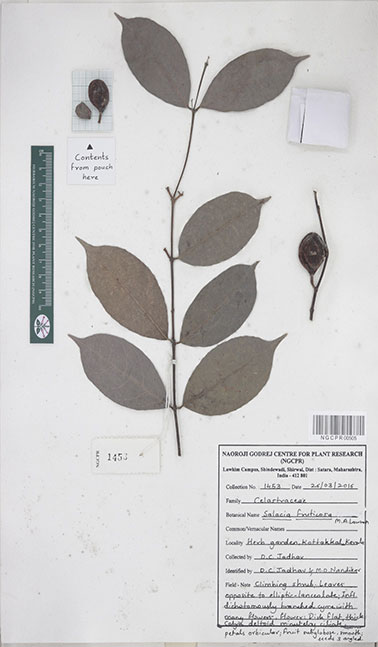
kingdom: Plantae
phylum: Tracheophyta
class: Magnoliopsida
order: Celastrales
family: Celastraceae
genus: Salacia
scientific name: Salacia fruticosa
